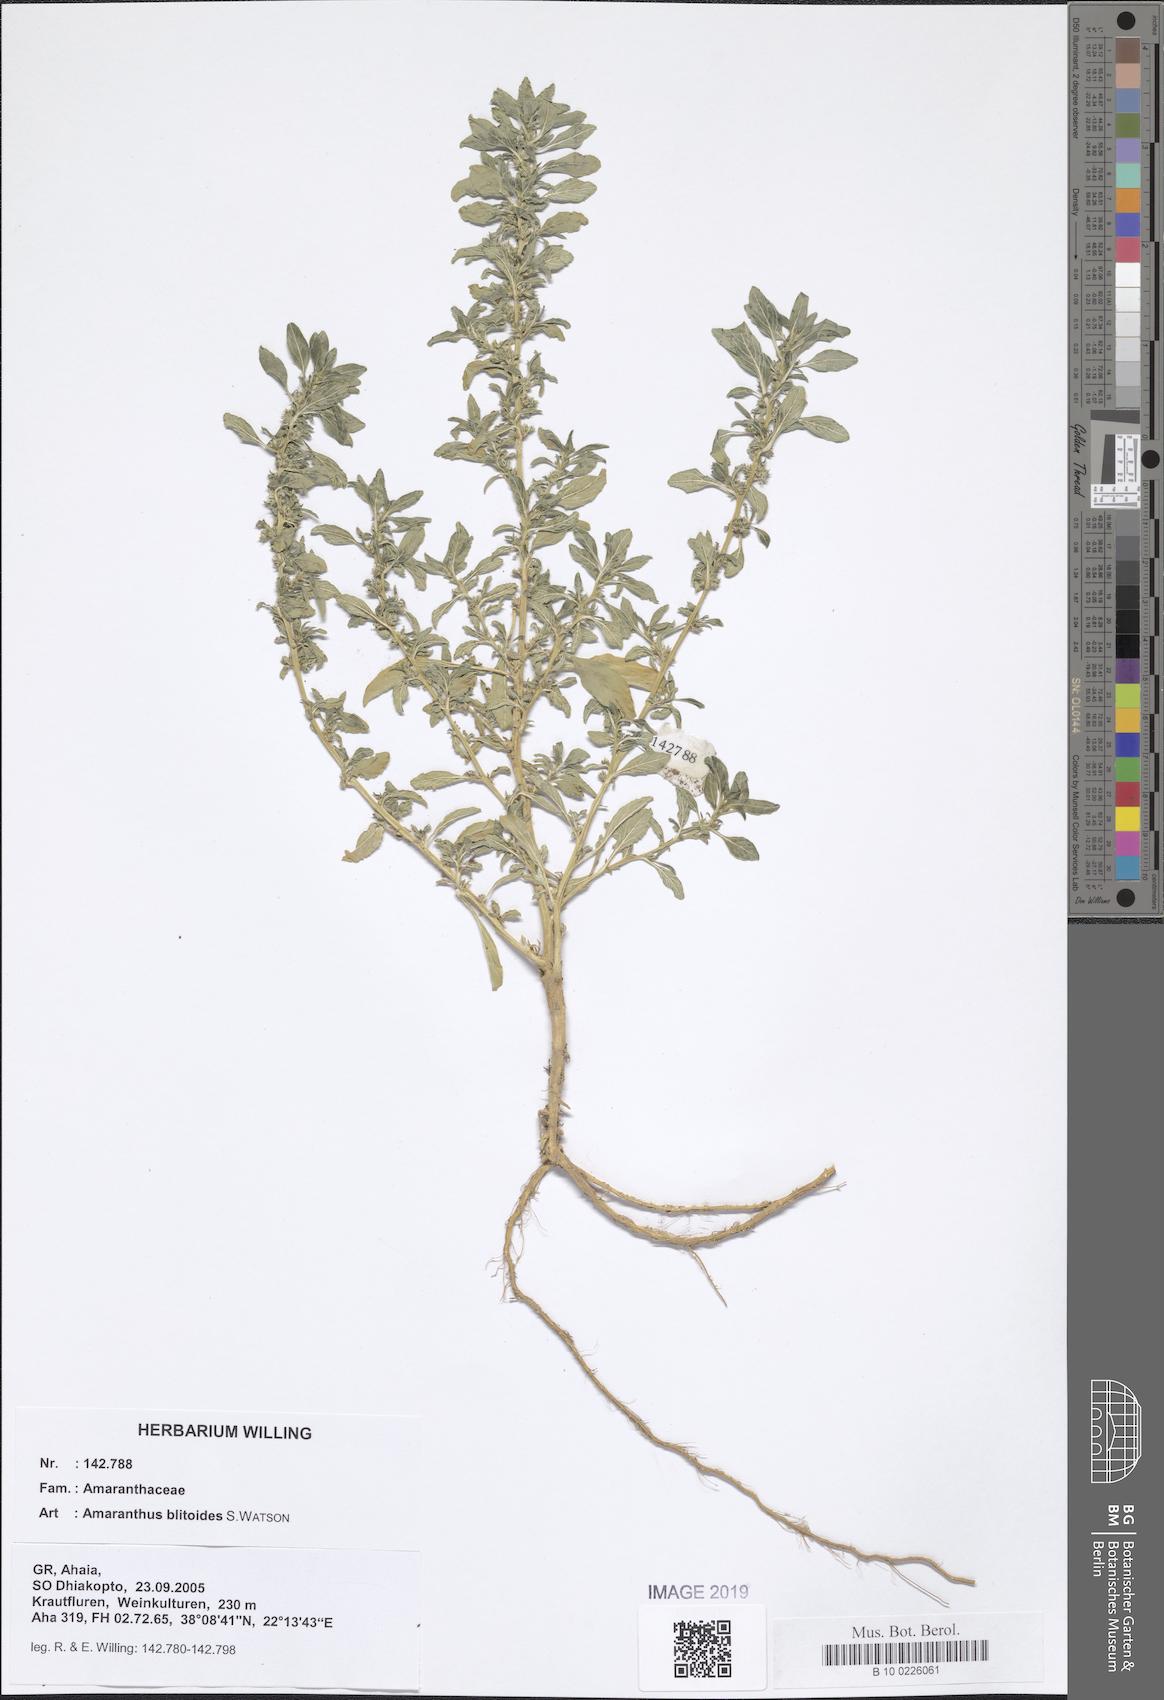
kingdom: Plantae
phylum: Tracheophyta
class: Magnoliopsida
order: Caryophyllales
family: Amaranthaceae
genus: Amaranthus
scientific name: Amaranthus blitoides
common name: Prostrate pigweed
